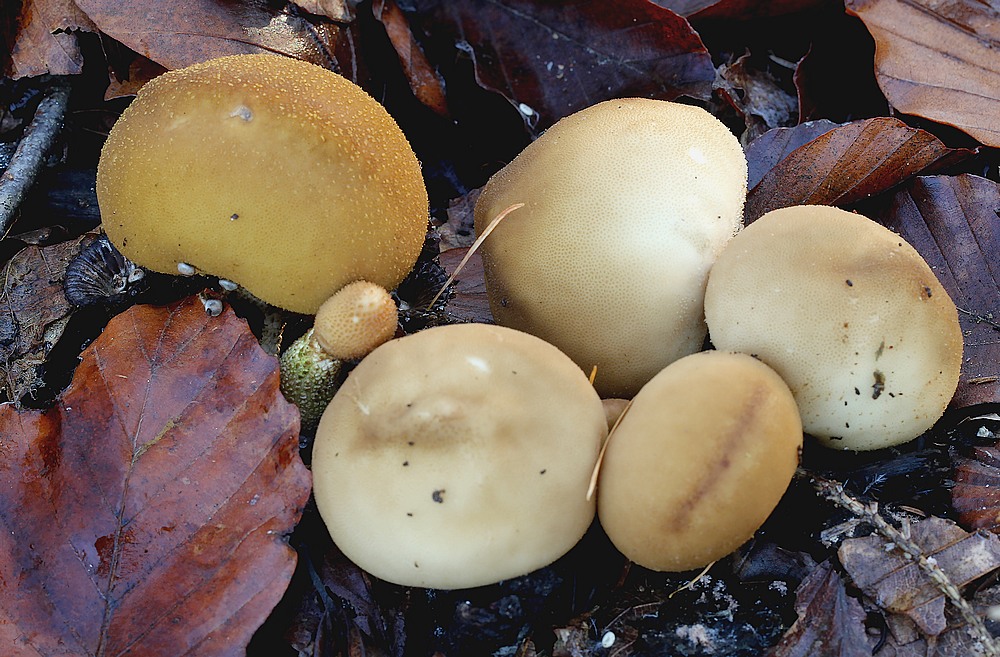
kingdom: Fungi
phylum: Basidiomycota
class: Agaricomycetes
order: Agaricales
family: Lycoperdaceae
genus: Apioperdon
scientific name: Apioperdon pyriforme
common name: pære-støvbold
